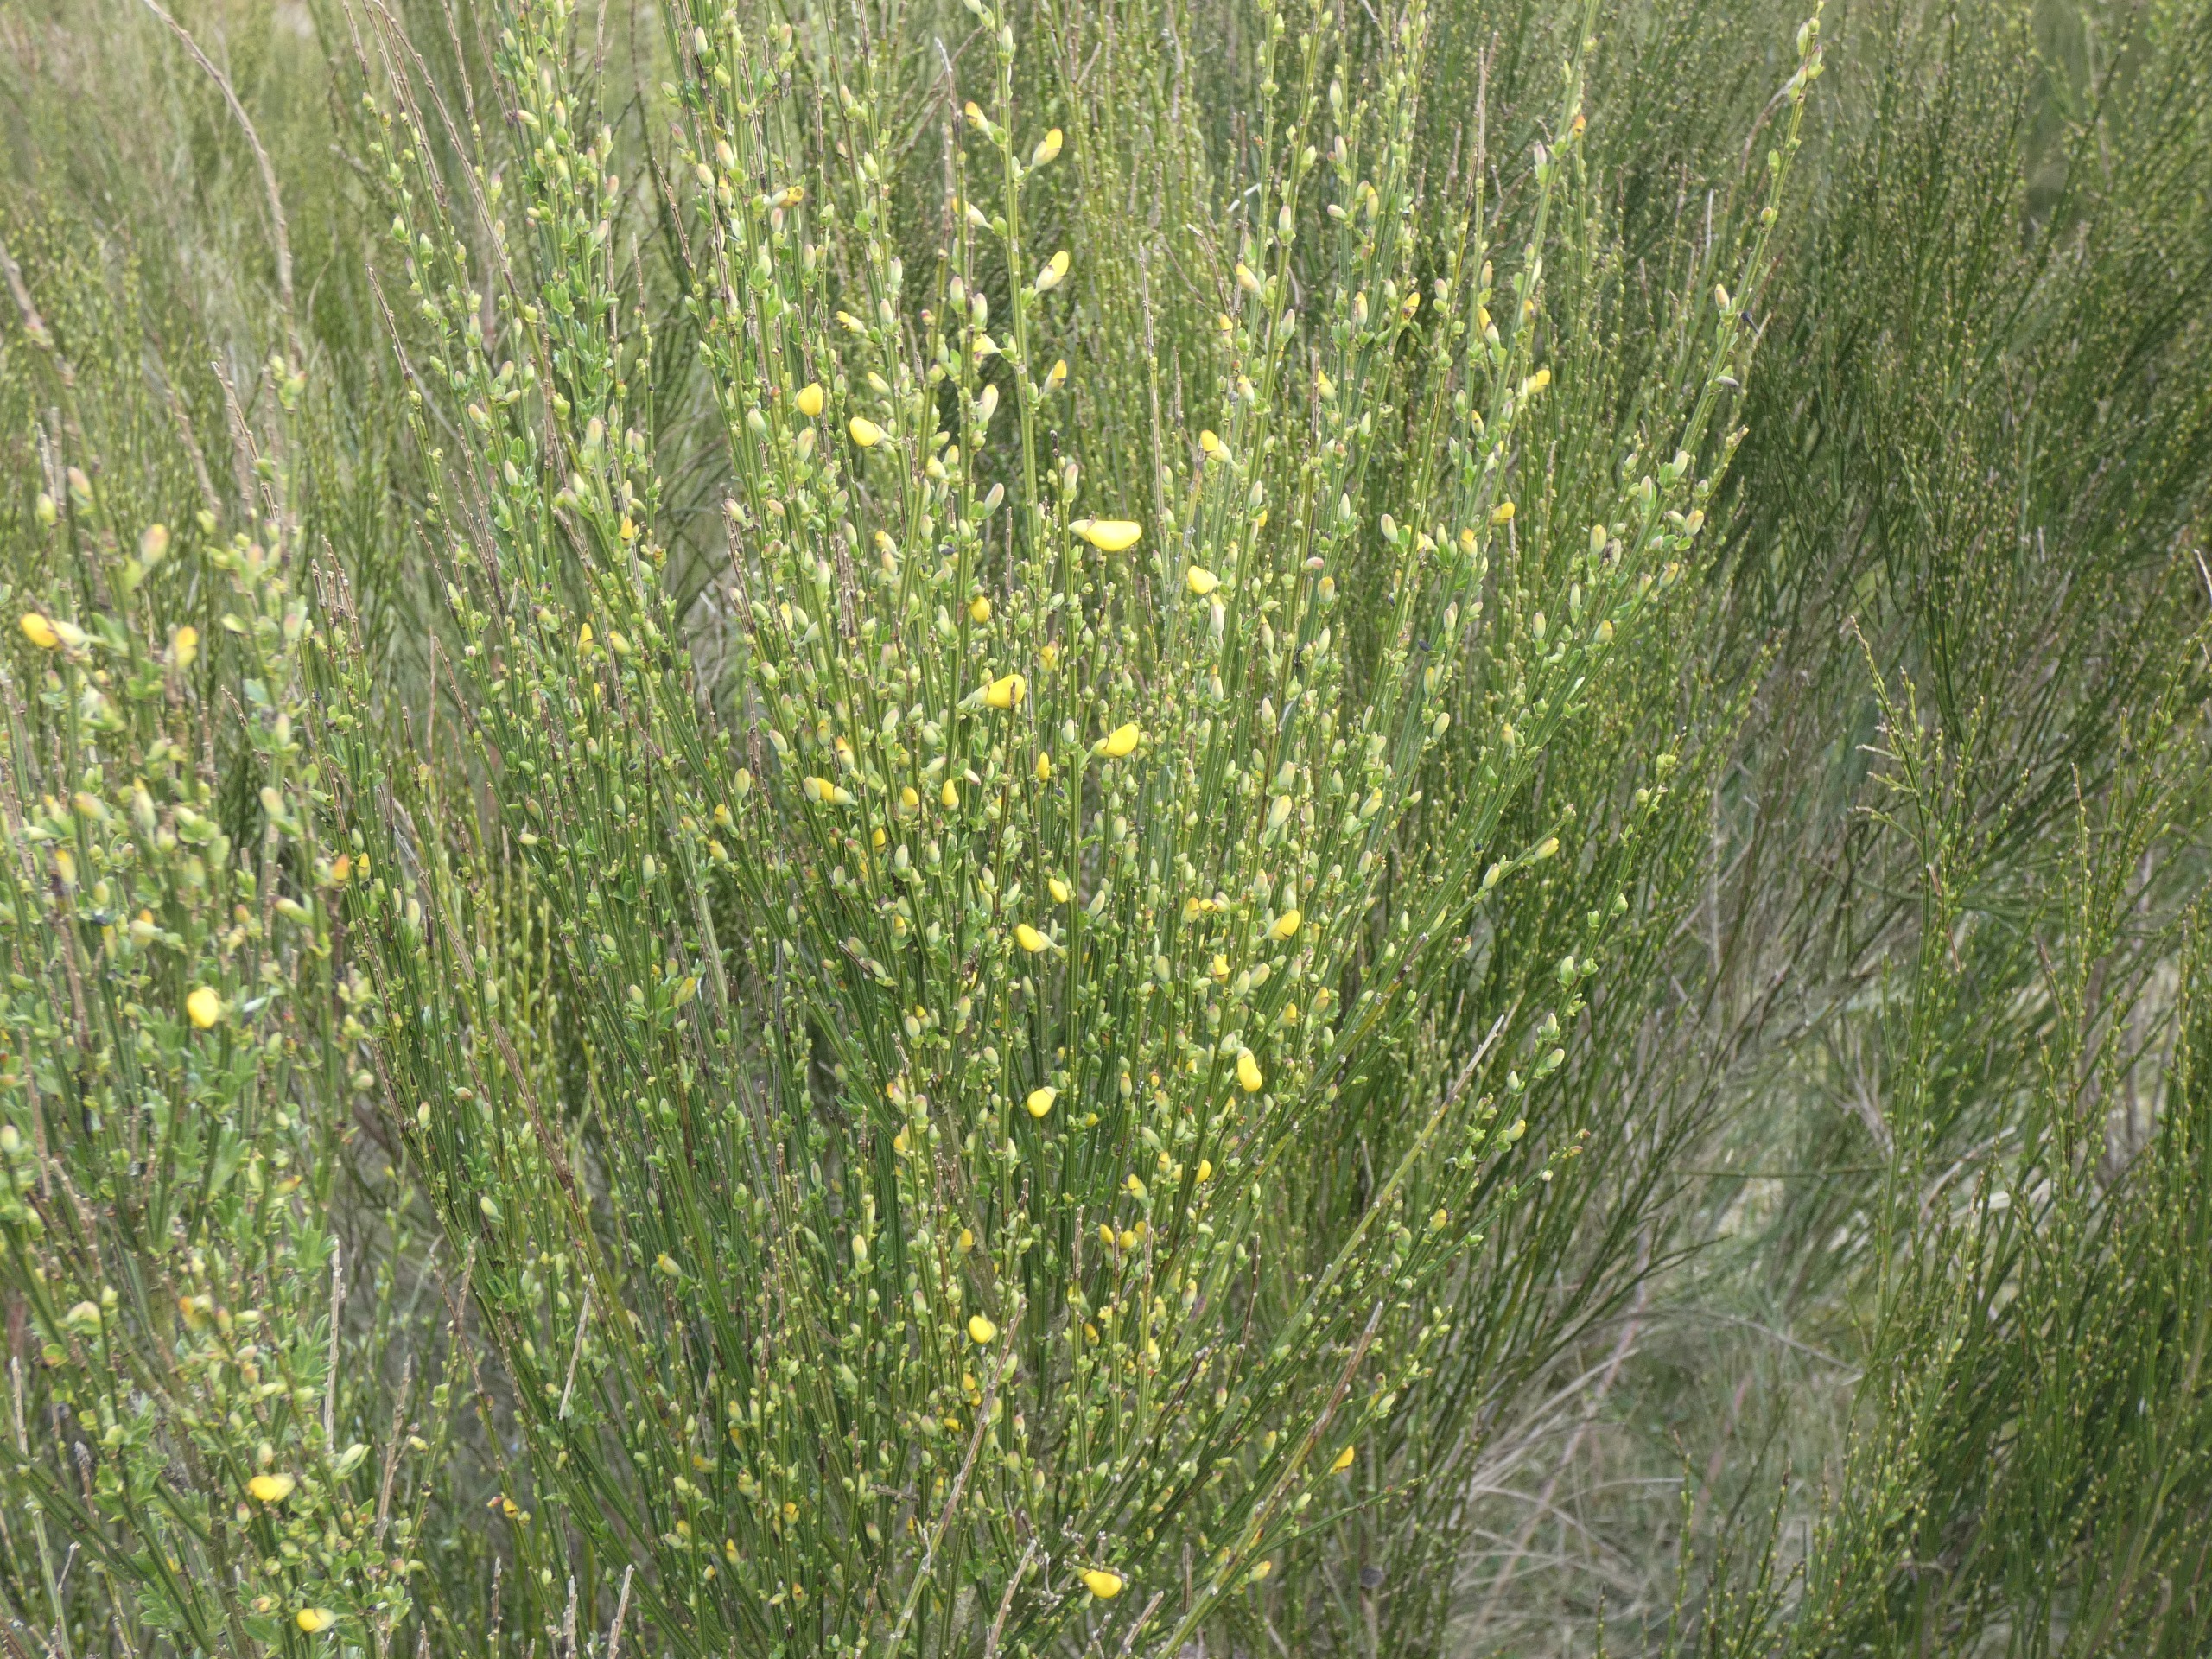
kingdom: Plantae
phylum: Tracheophyta
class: Magnoliopsida
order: Fabales
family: Fabaceae
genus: Cytisus
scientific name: Cytisus scoparius
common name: Almindelig gyvel
